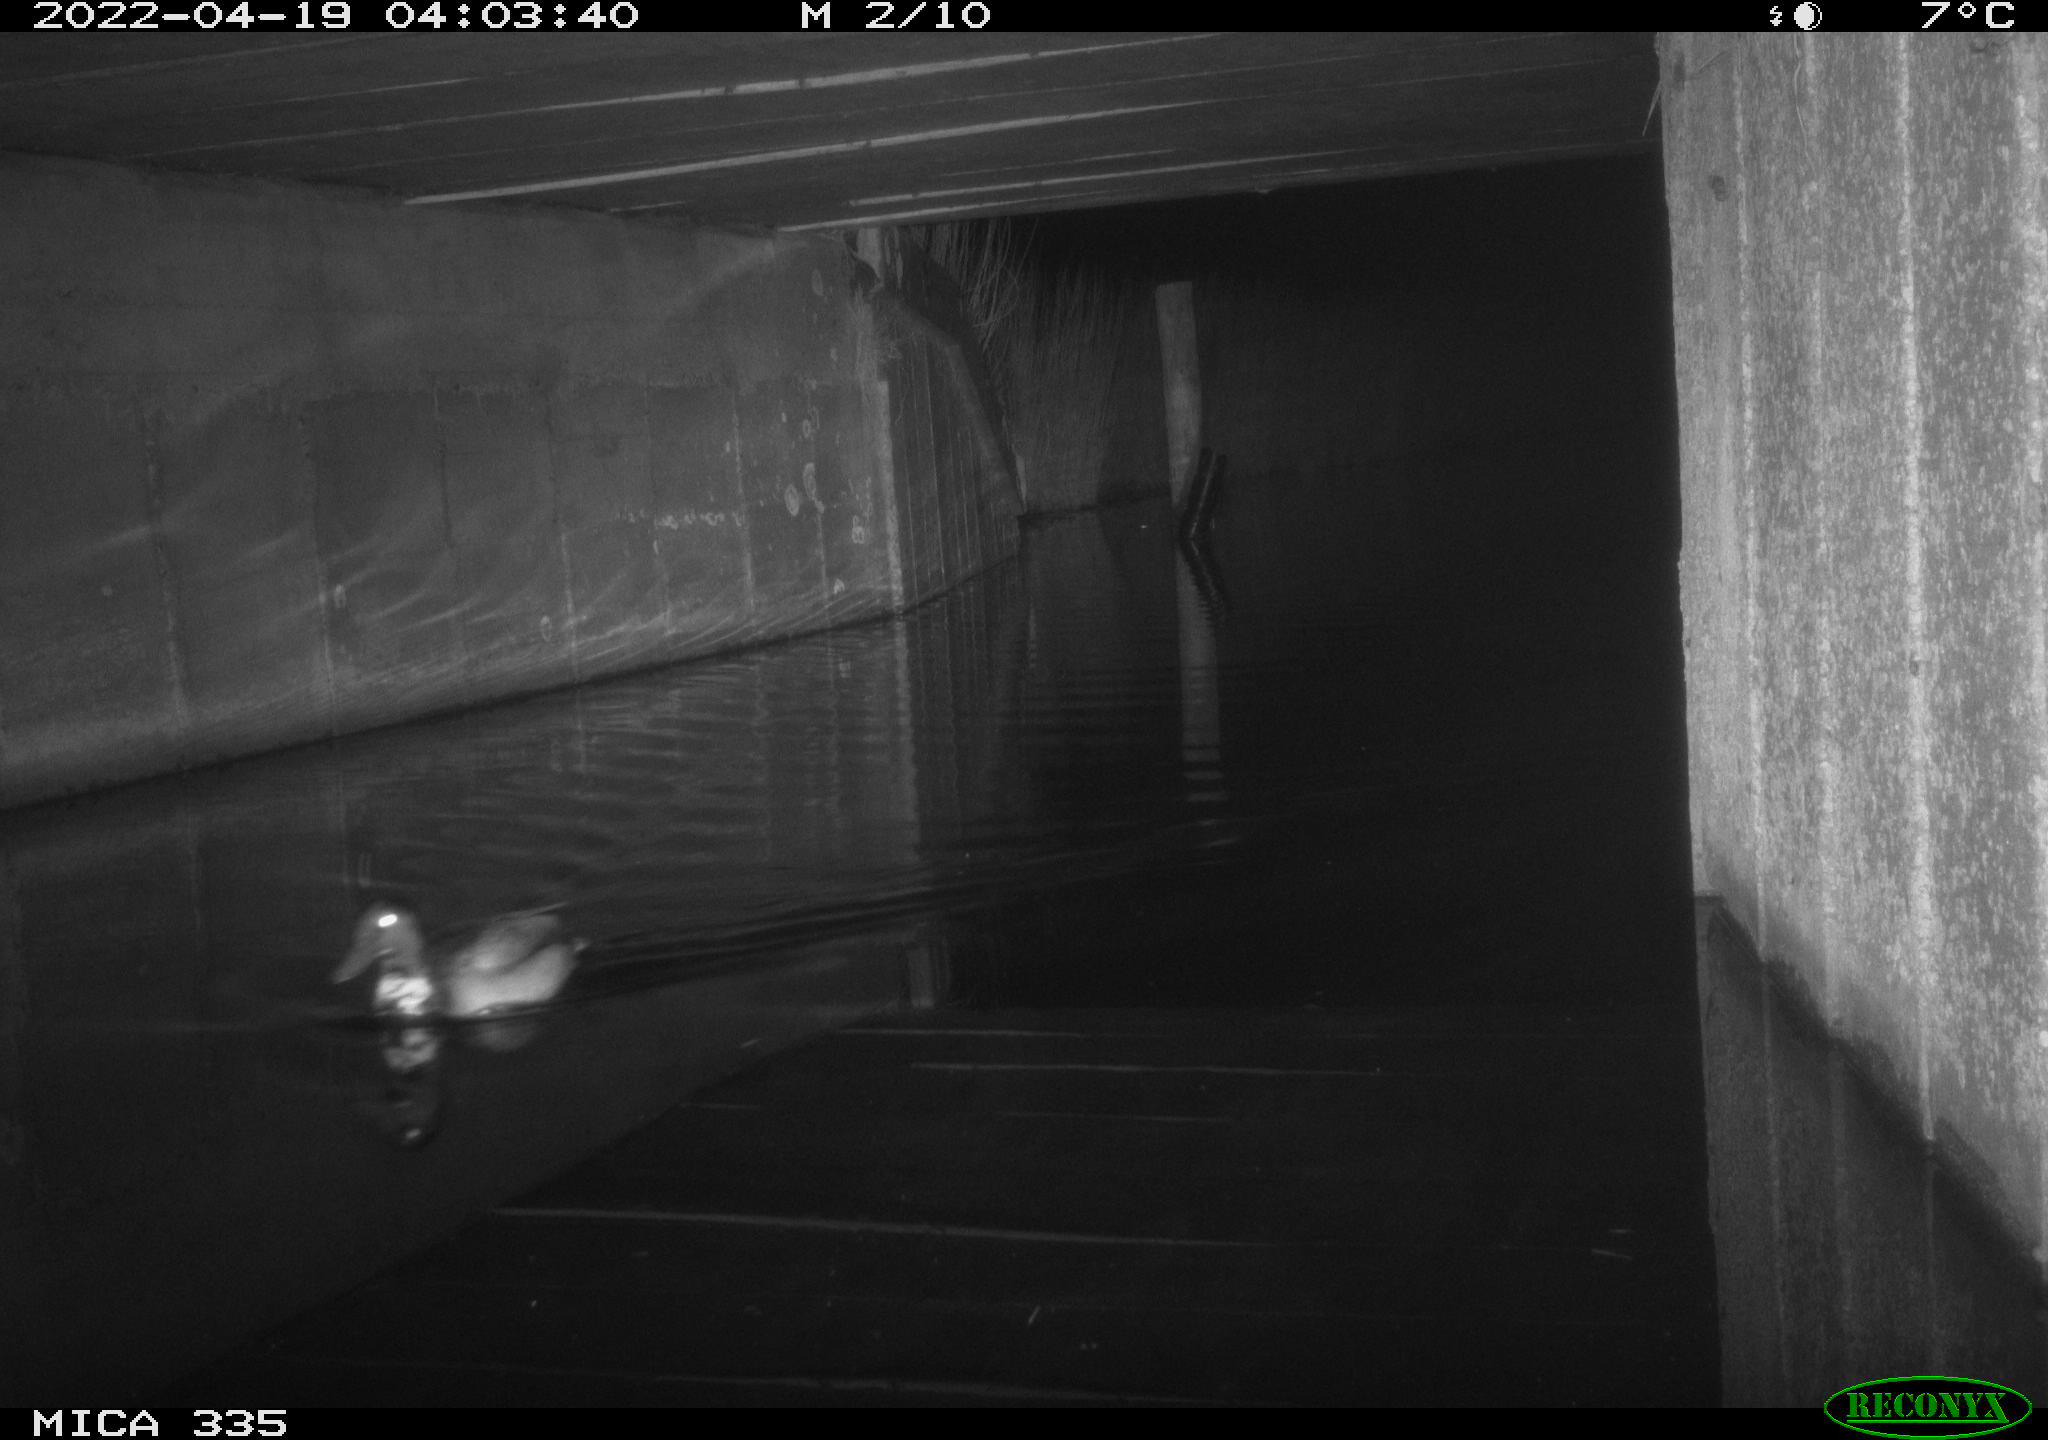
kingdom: Animalia
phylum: Chordata
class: Aves
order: Anseriformes
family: Anatidae
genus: Anas
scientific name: Anas platyrhynchos
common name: Mallard
